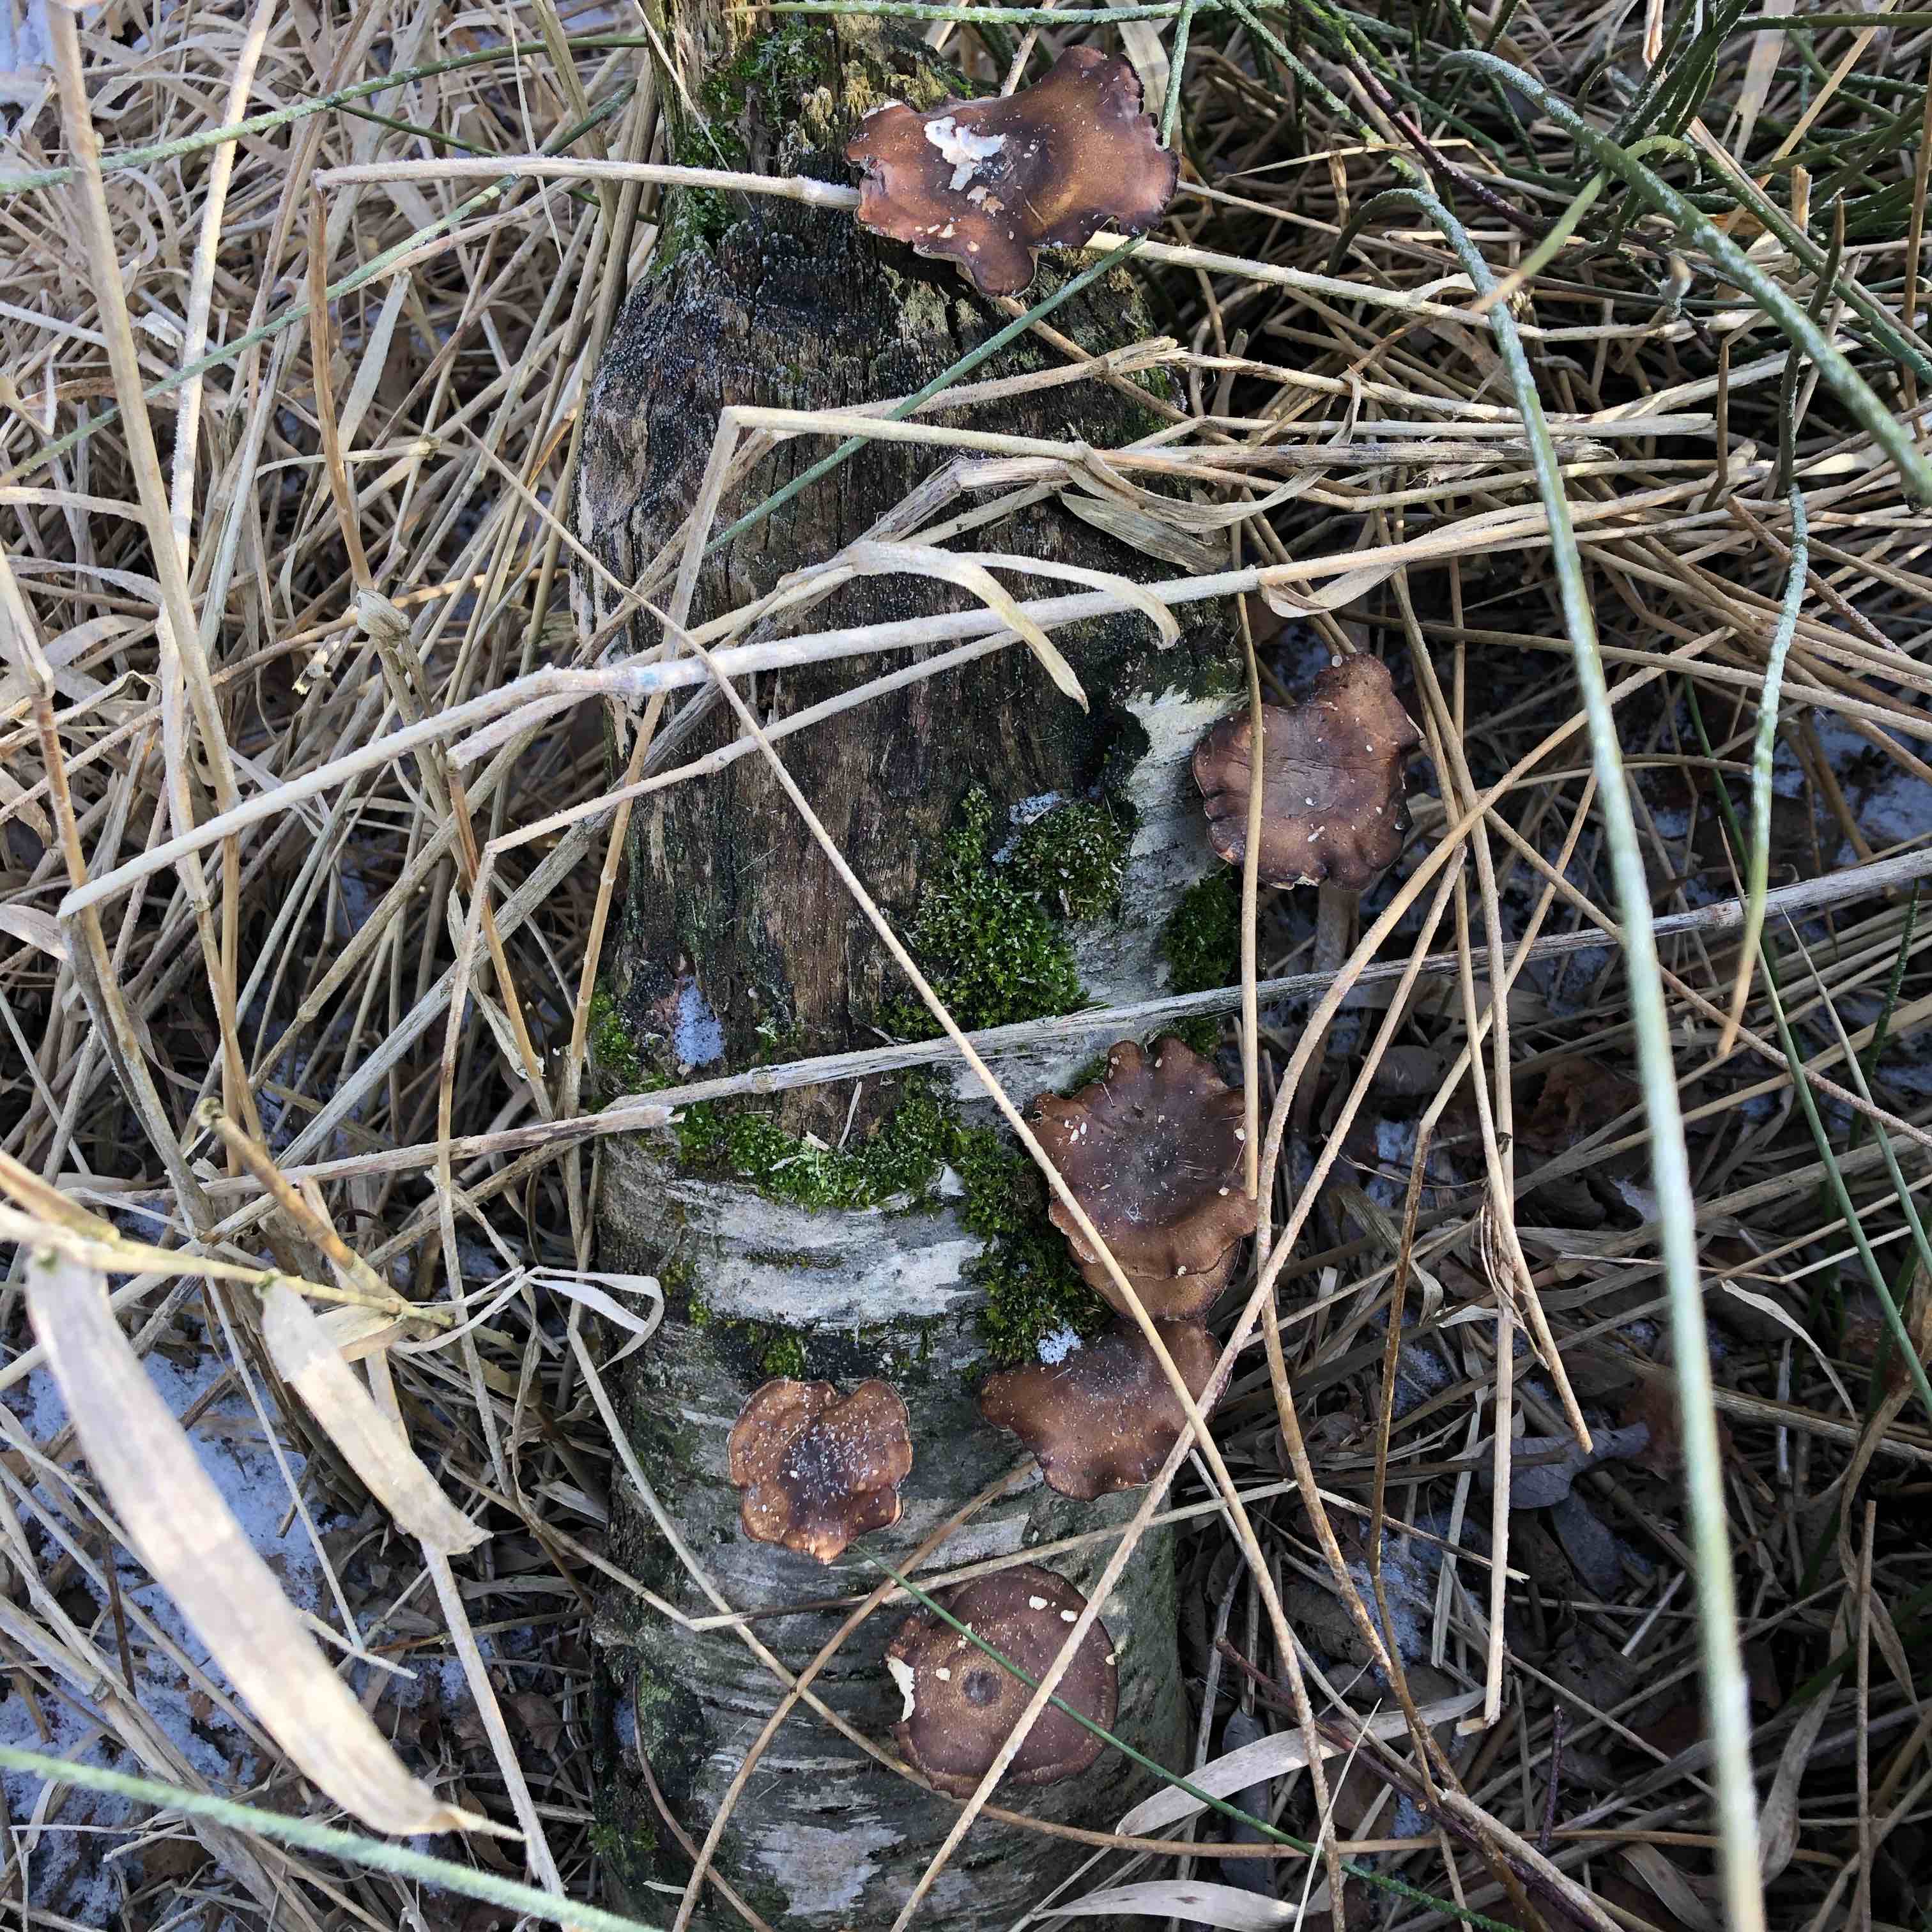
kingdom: Fungi
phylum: Basidiomycota
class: Agaricomycetes
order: Polyporales
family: Polyporaceae
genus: Lentinus
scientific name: Lentinus brumalis
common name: vinter-stilkporesvamp
